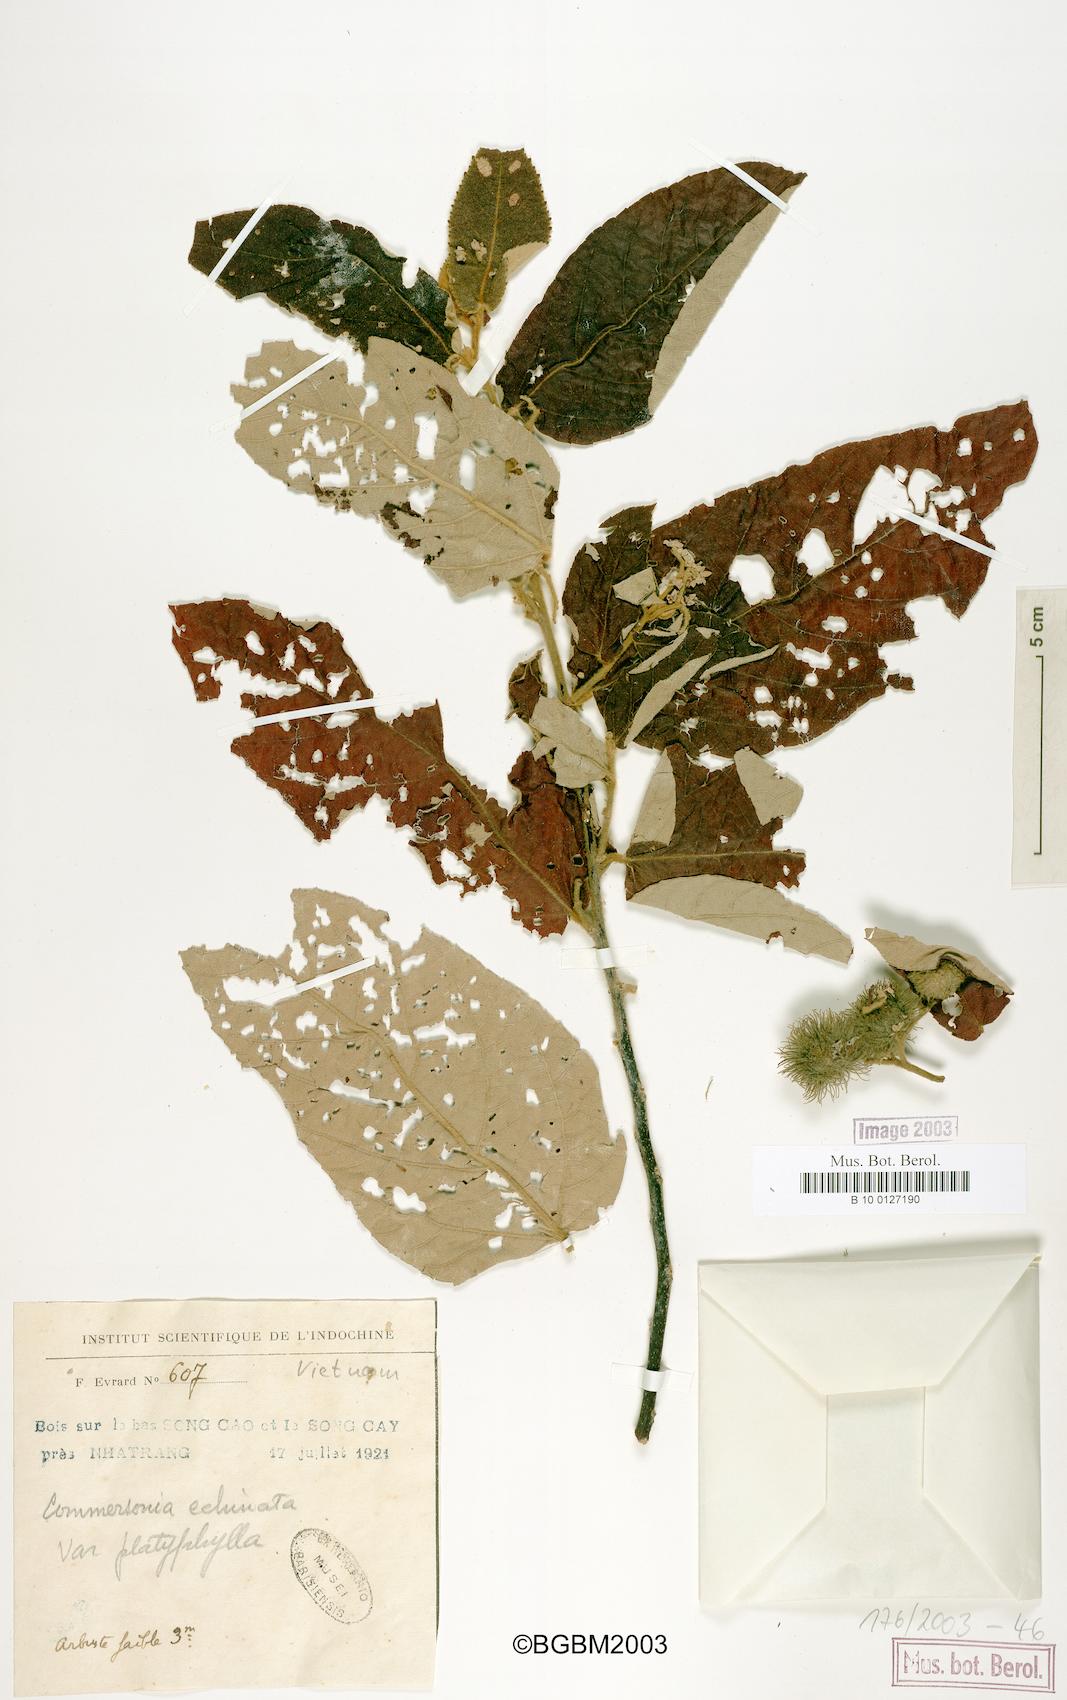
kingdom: Plantae
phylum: Tracheophyta
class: Magnoliopsida
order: Malvales
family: Malvaceae
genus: Commersonia
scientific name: Commersonia bartramia
